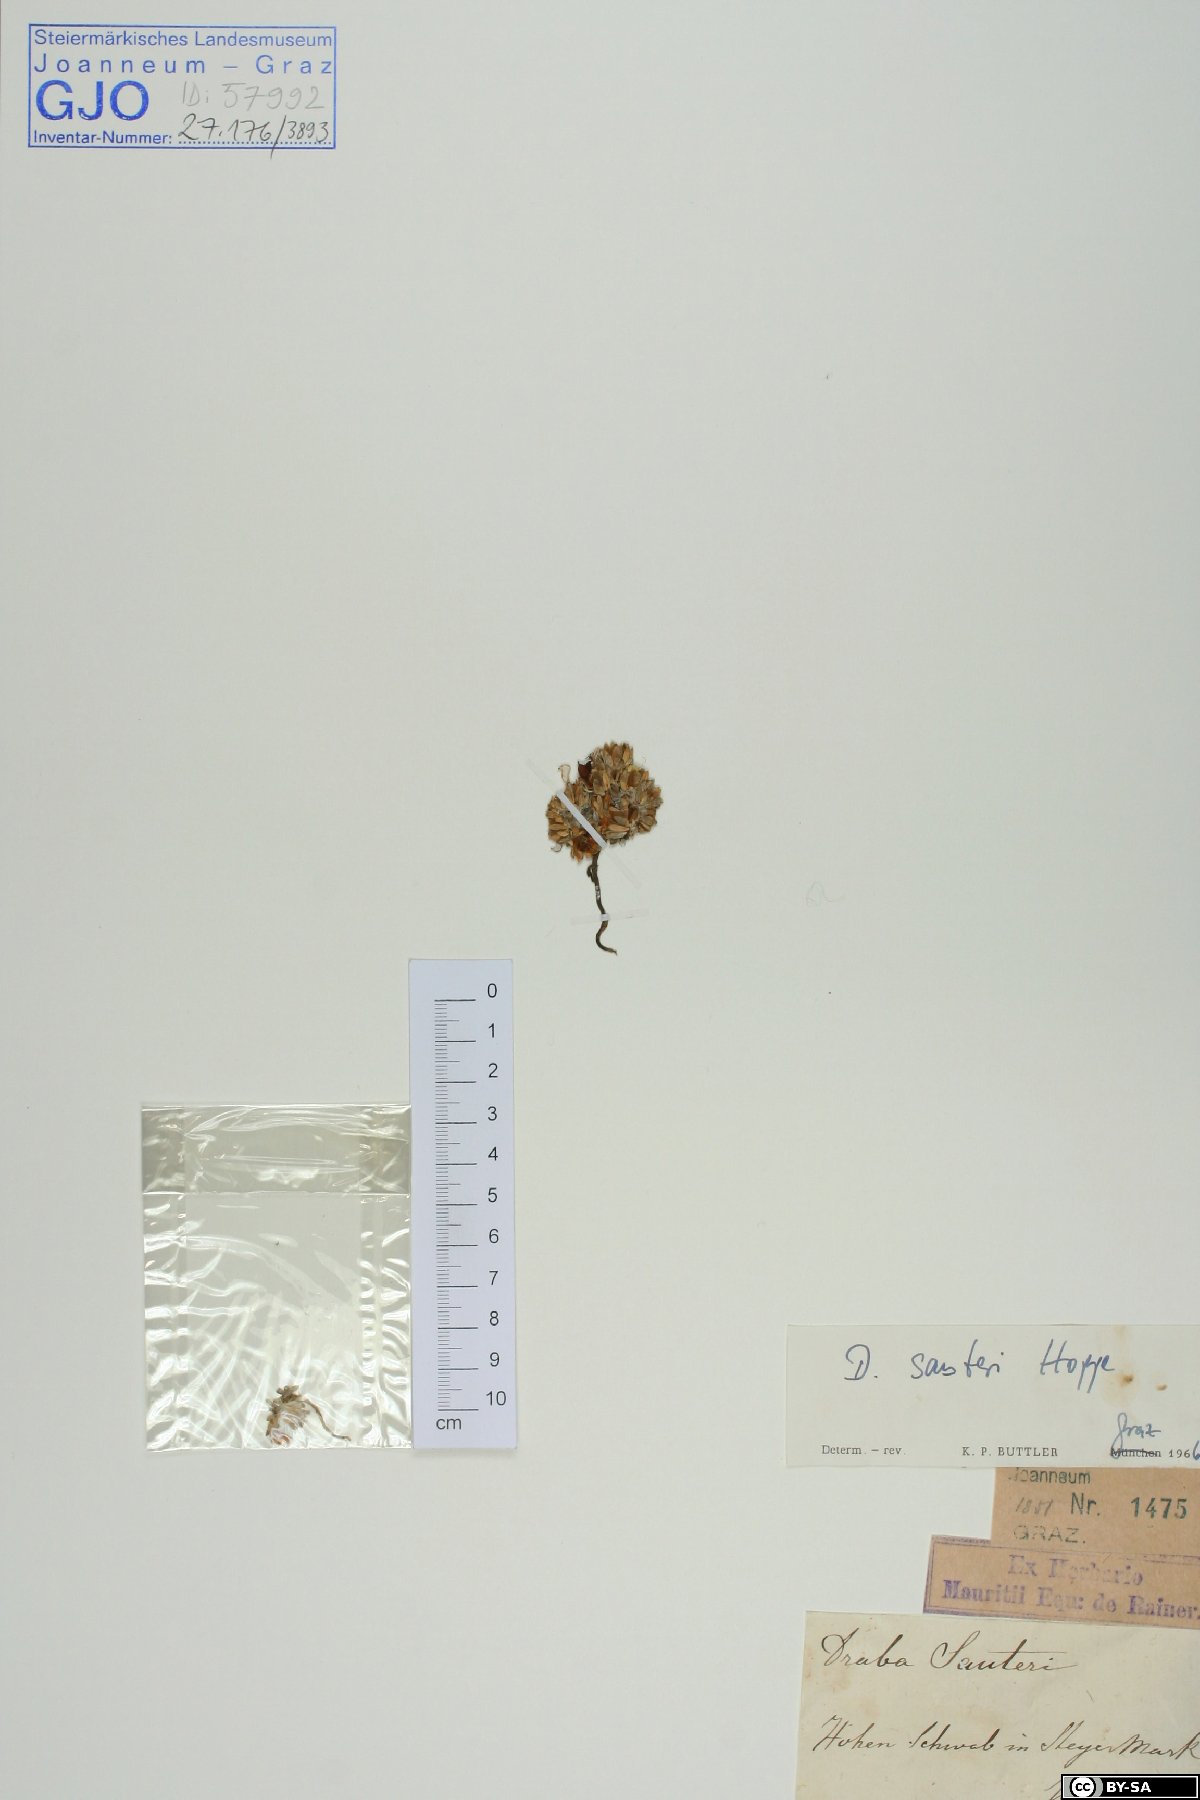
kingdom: Plantae
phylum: Tracheophyta
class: Magnoliopsida
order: Brassicales
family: Brassicaceae
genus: Draba
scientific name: Draba sauteri
